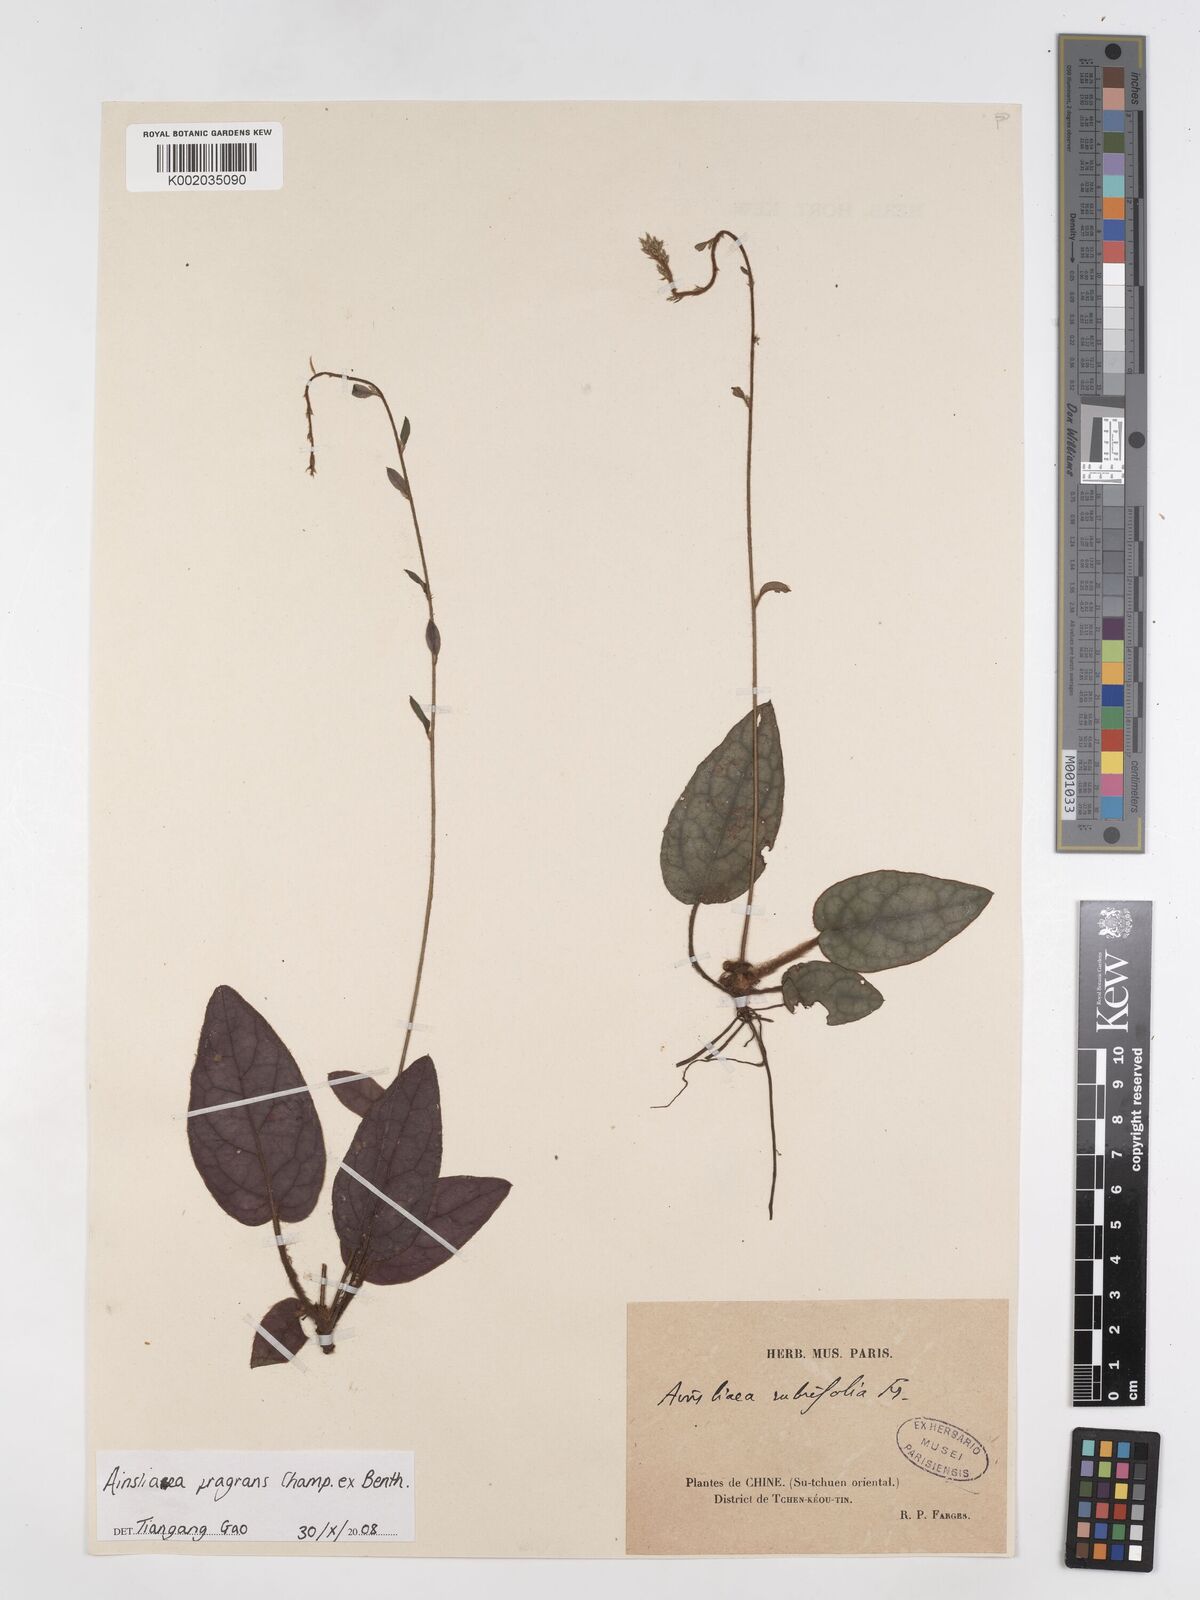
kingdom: Plantae
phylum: Tracheophyta
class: Magnoliopsida
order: Asterales
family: Asteraceae
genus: Ainsliaea
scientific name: Ainsliaea fragrans
